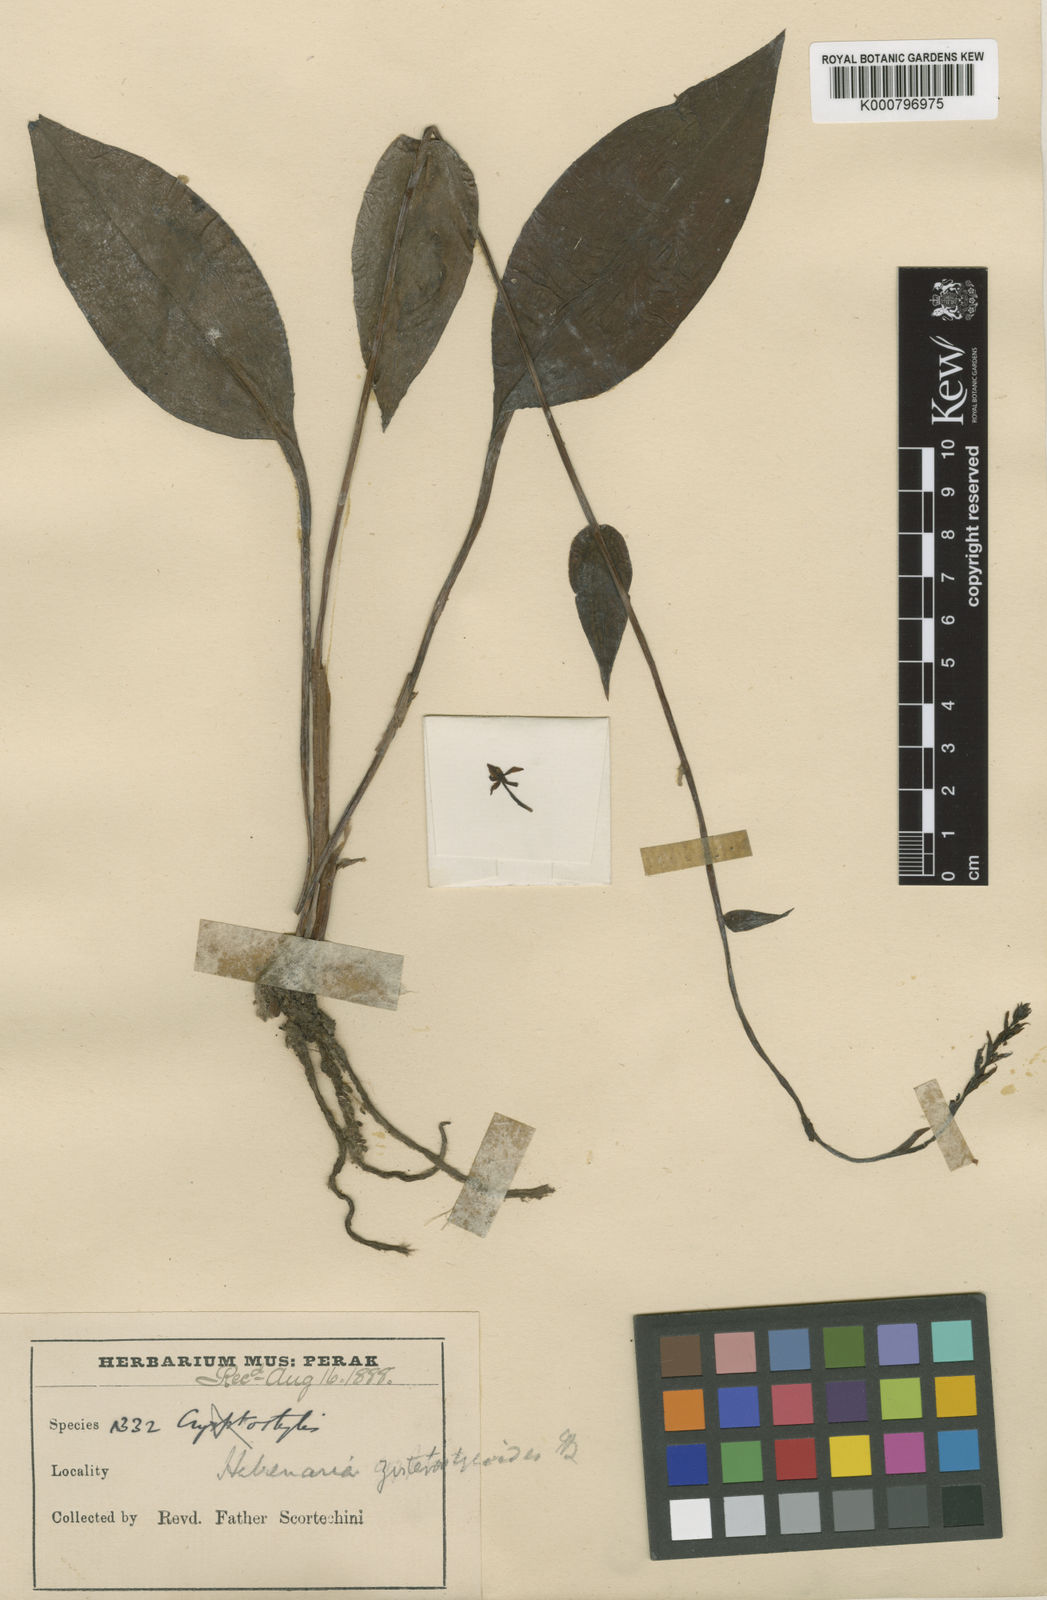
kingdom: Plantae
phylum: Tracheophyta
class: Liliopsida
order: Asparagales
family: Orchidaceae
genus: Platanthera
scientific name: Platanthera angustata
